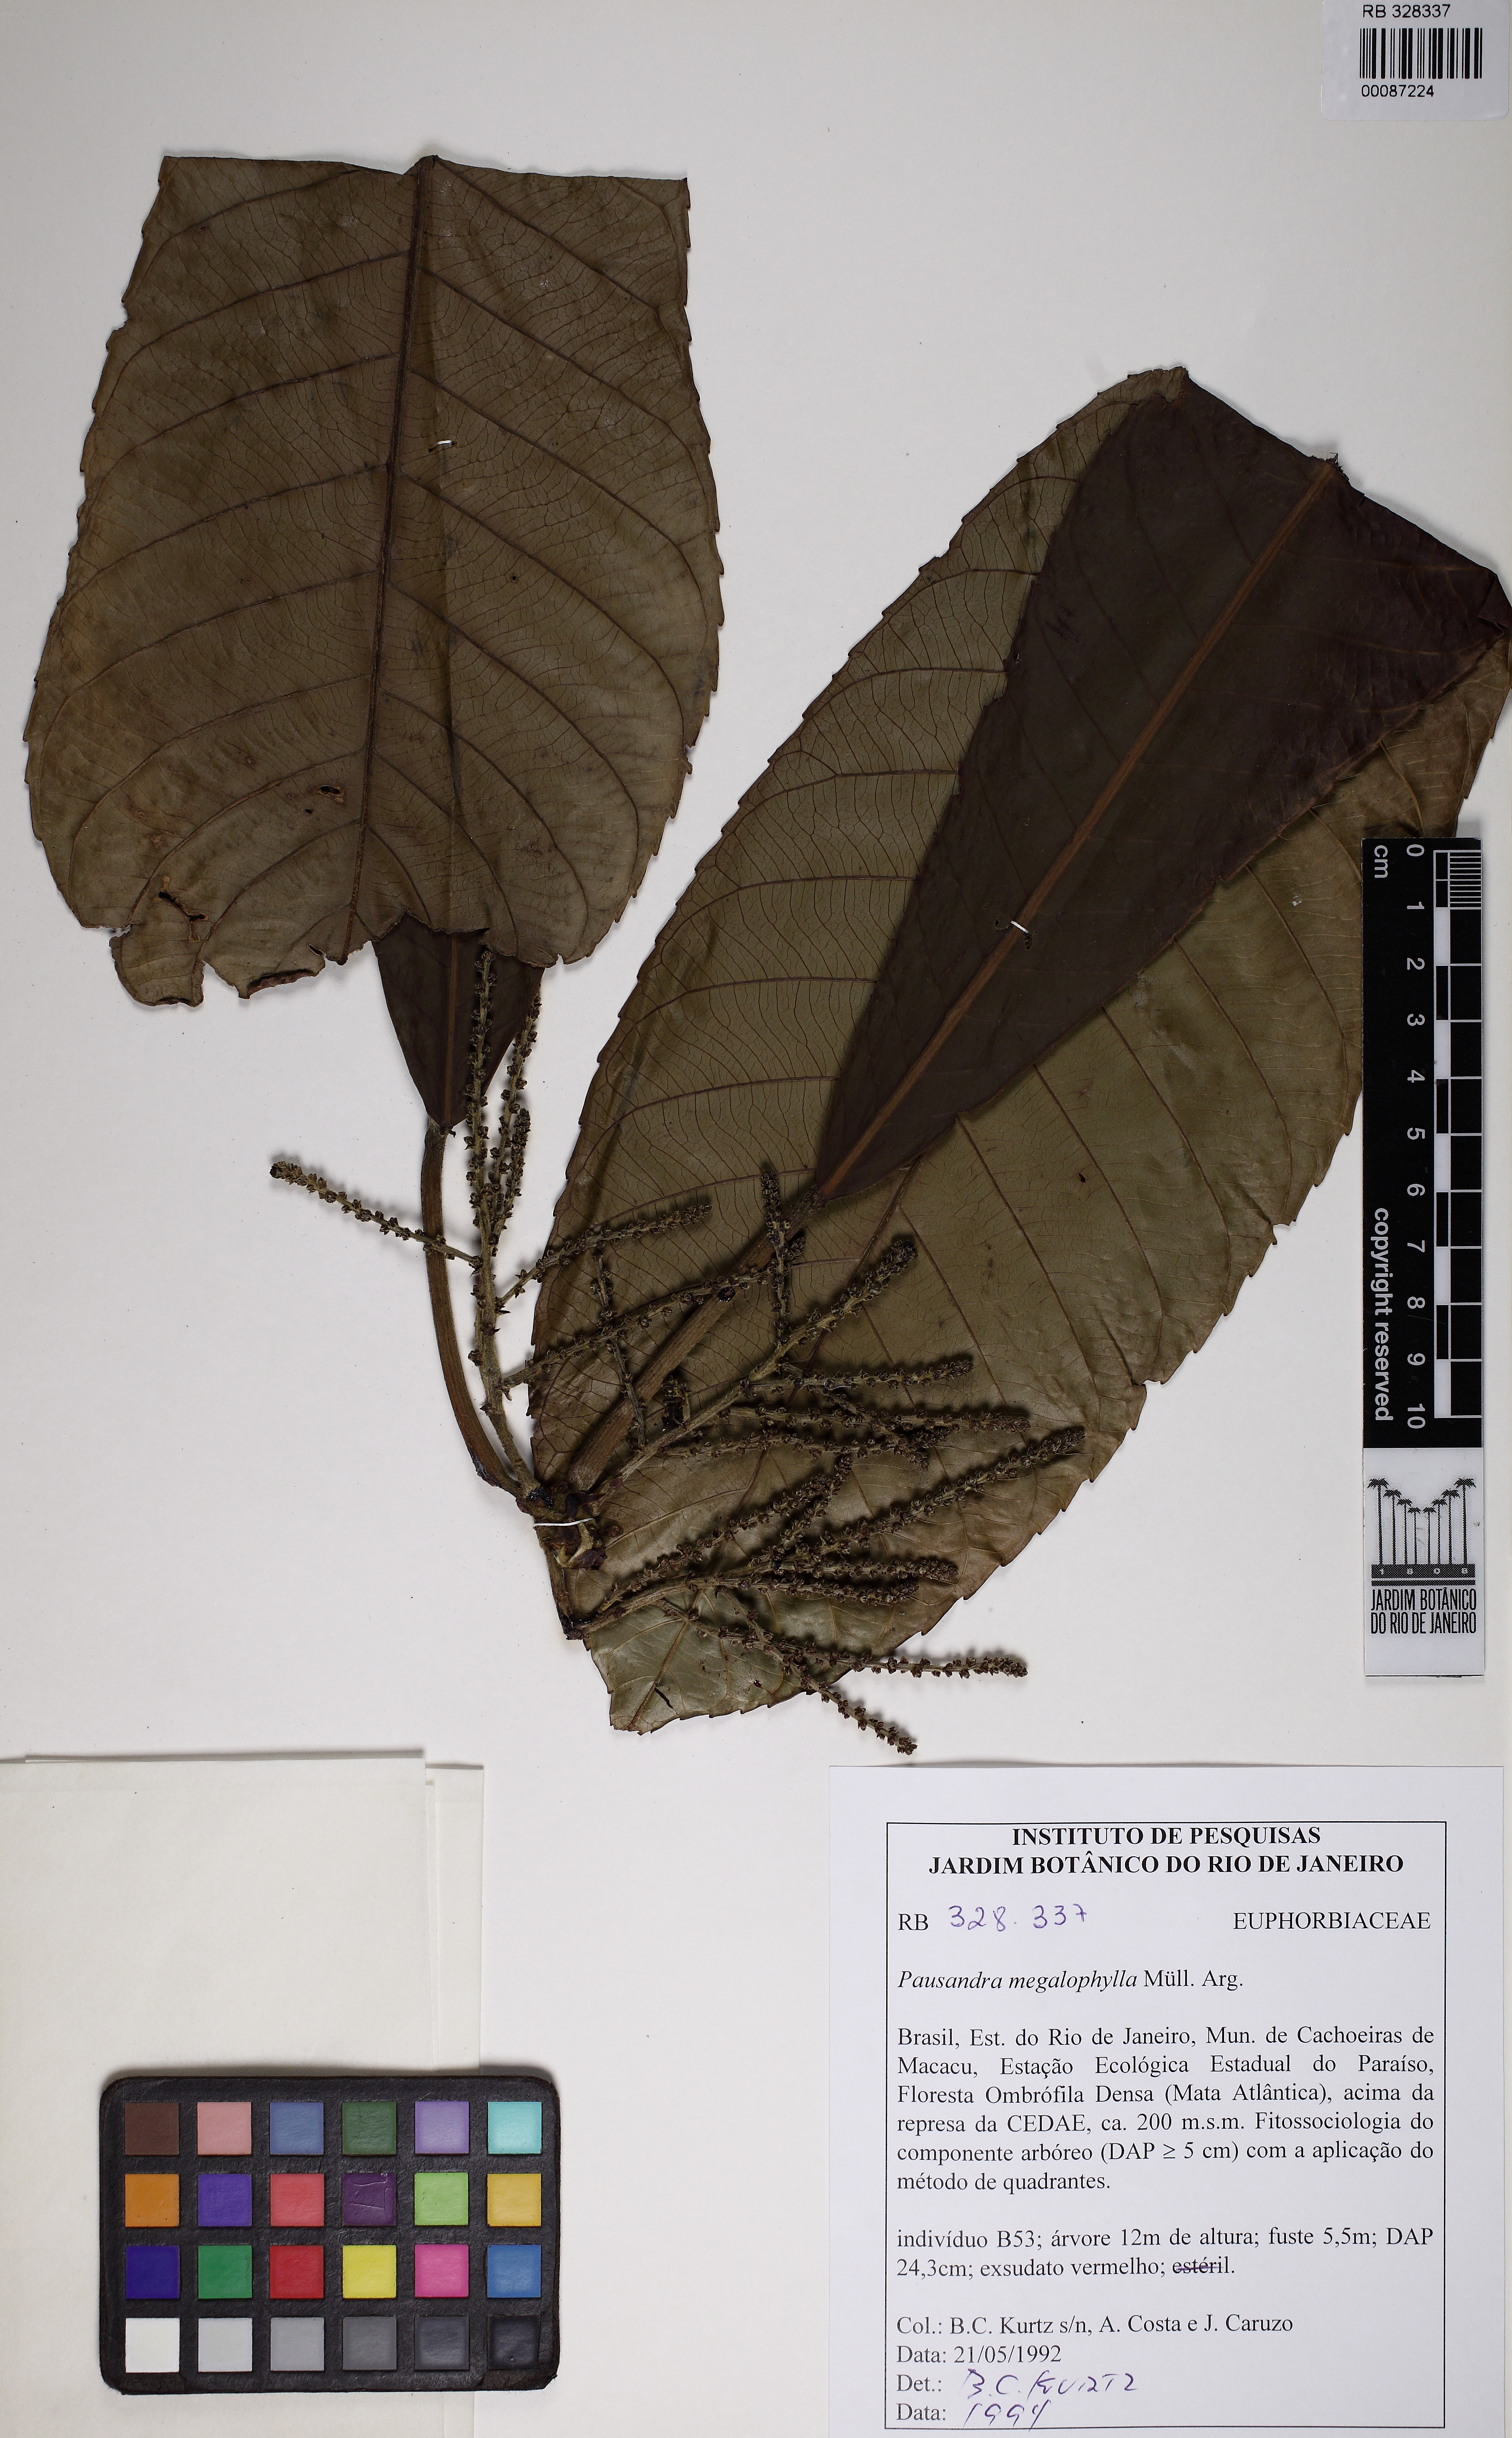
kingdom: Plantae
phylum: Tracheophyta
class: Magnoliopsida
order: Malpighiales
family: Euphorbiaceae
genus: Pausandra
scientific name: Pausandra megalophylla
